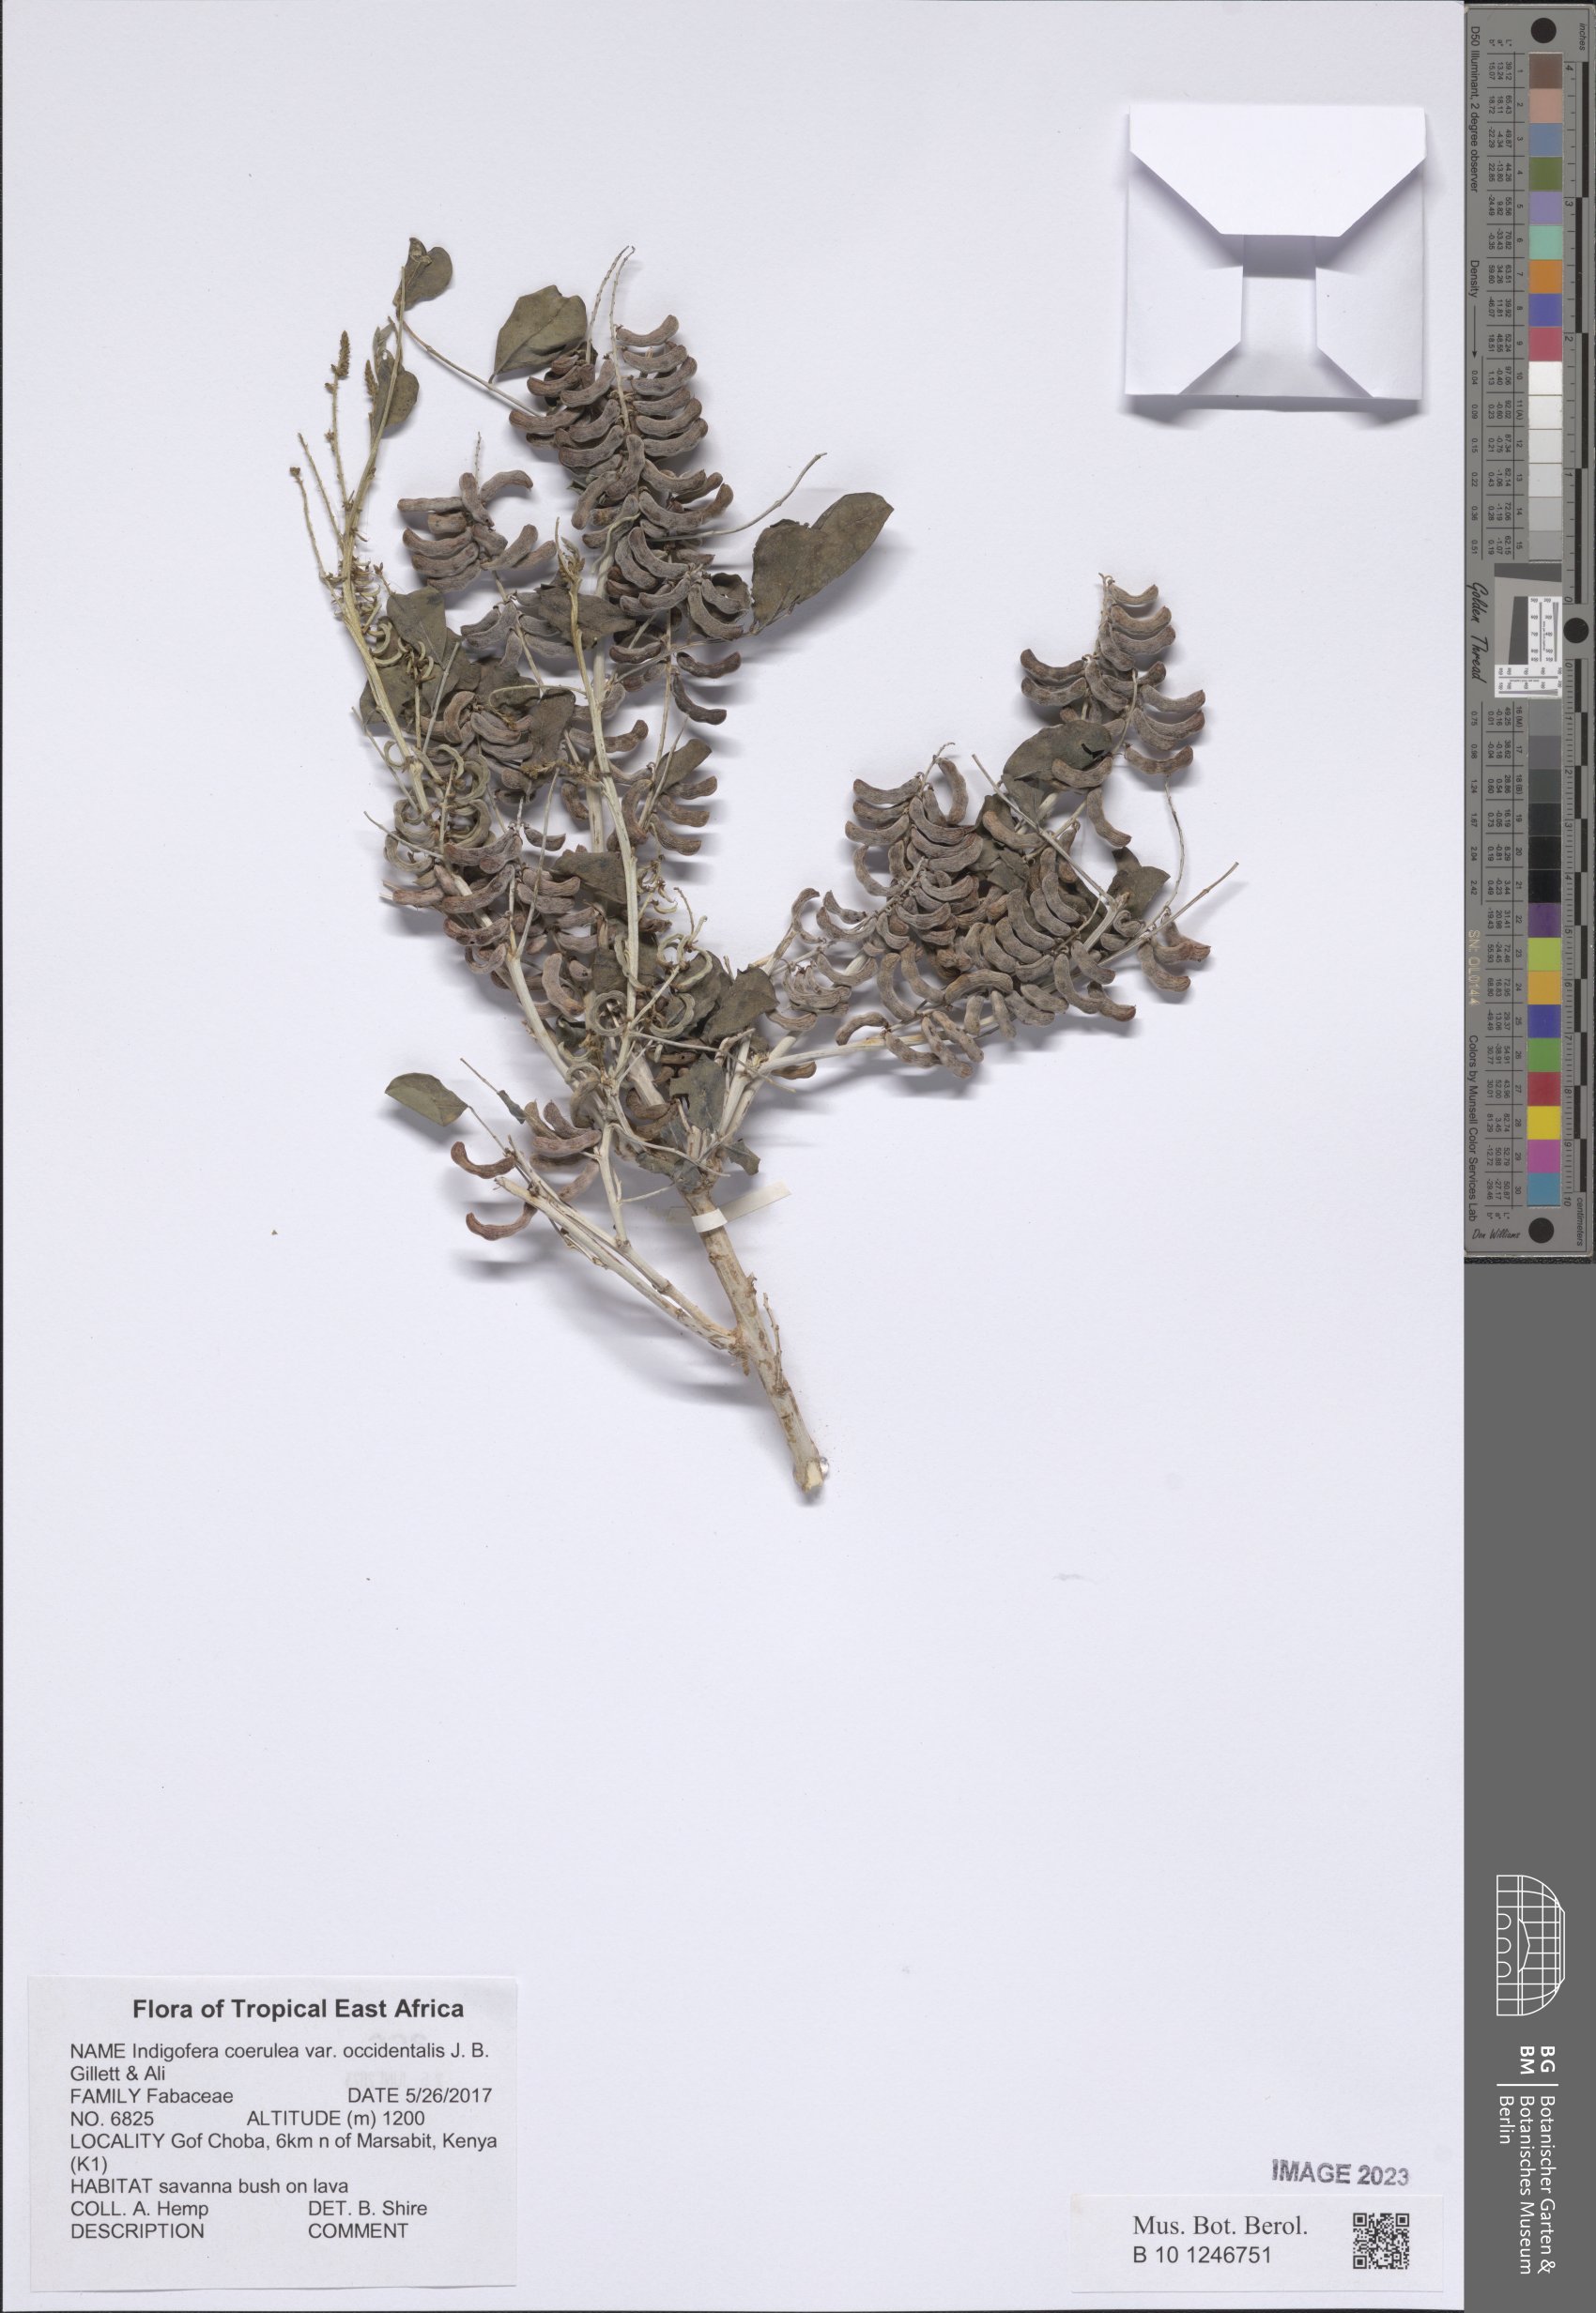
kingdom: Plantae
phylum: Tracheophyta
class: Magnoliopsida
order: Fabales
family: Fabaceae
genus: Indigofera
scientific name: Indigofera coerulea
